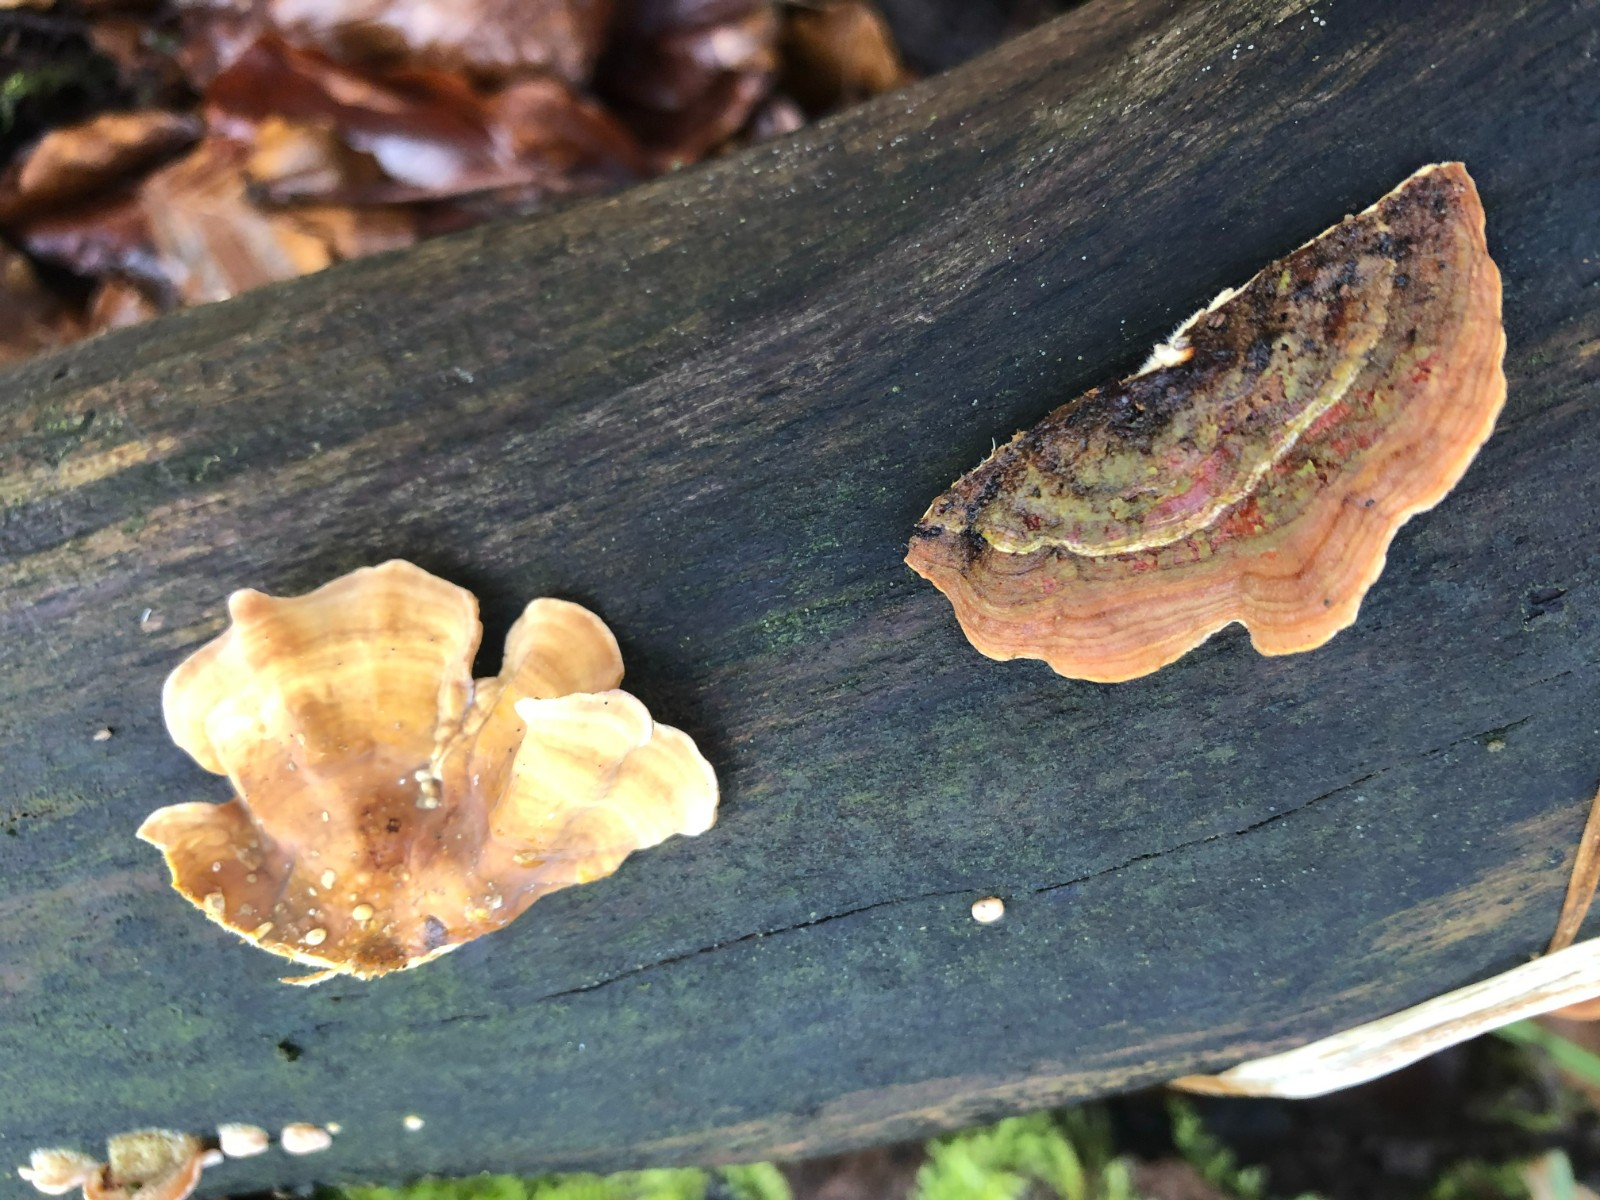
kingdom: Fungi
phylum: Basidiomycota
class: Agaricomycetes
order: Russulales
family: Stereaceae
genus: Stereum
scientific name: Stereum hirsutum
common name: håret lædersvamp
